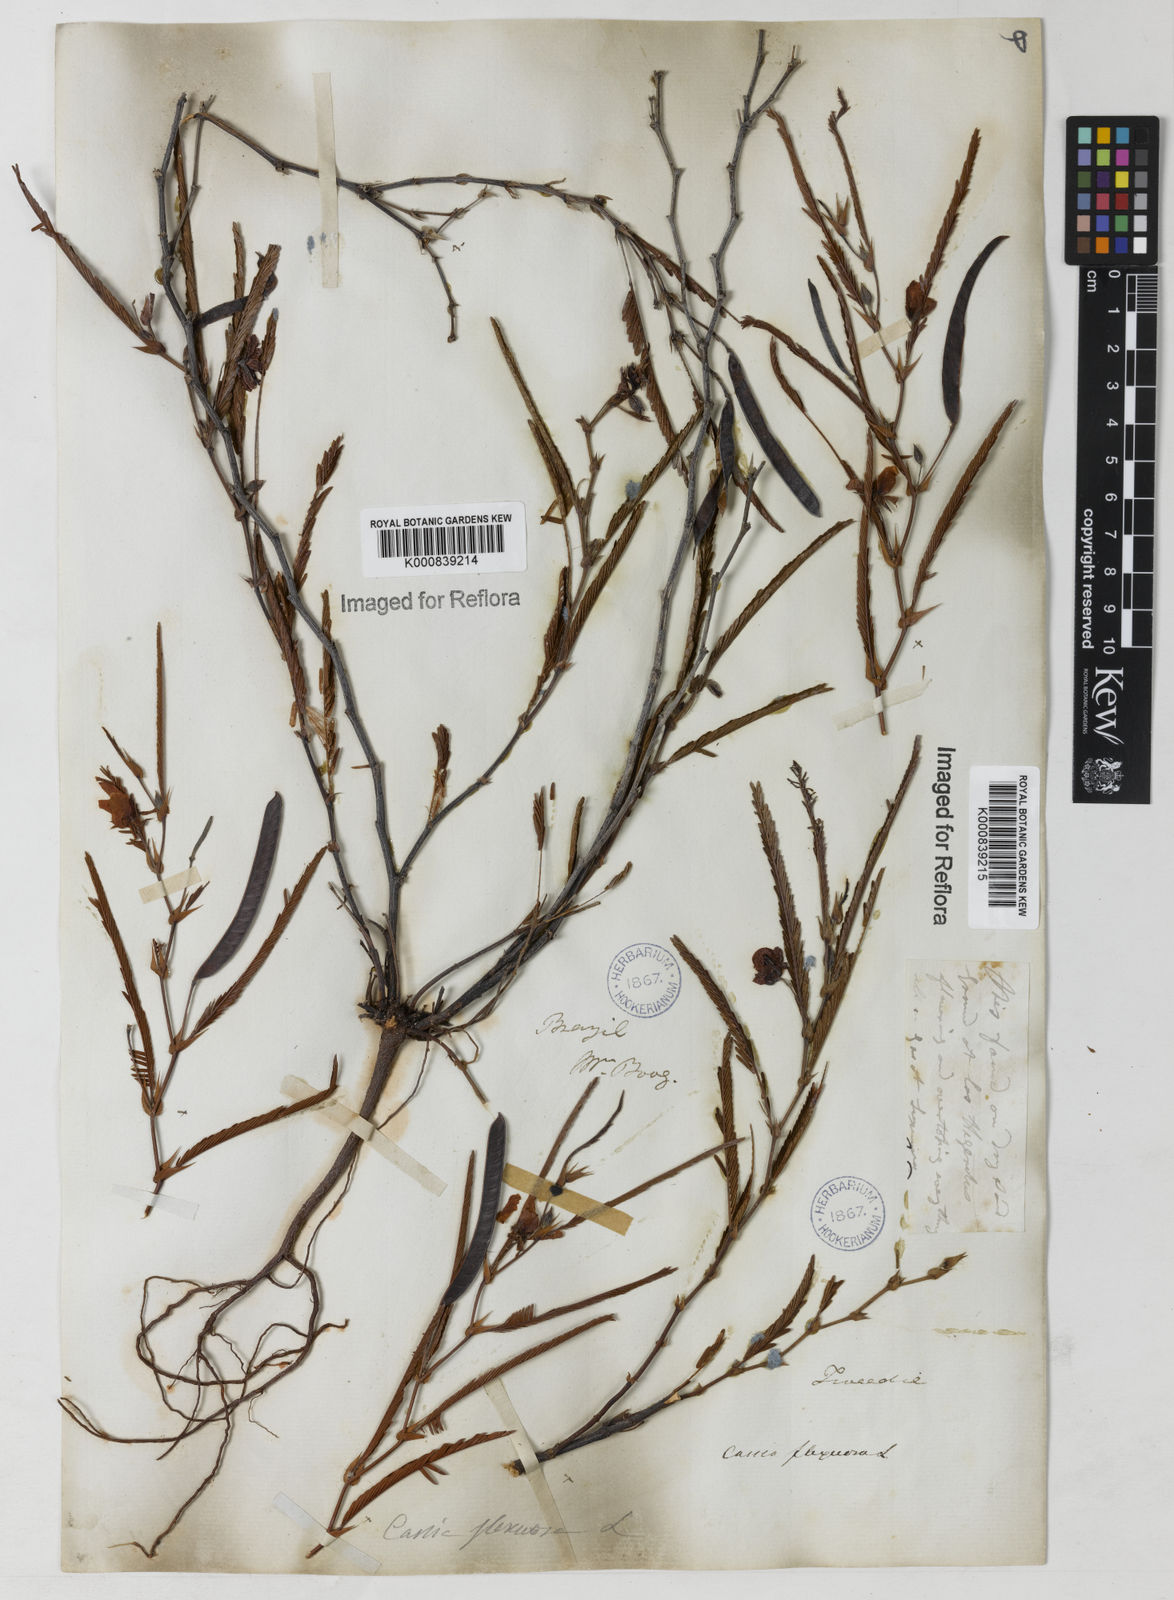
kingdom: Plantae
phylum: Tracheophyta
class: Magnoliopsida
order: Fabales
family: Fabaceae
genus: Chamaecrista
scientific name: Chamaecrista flexuosa
